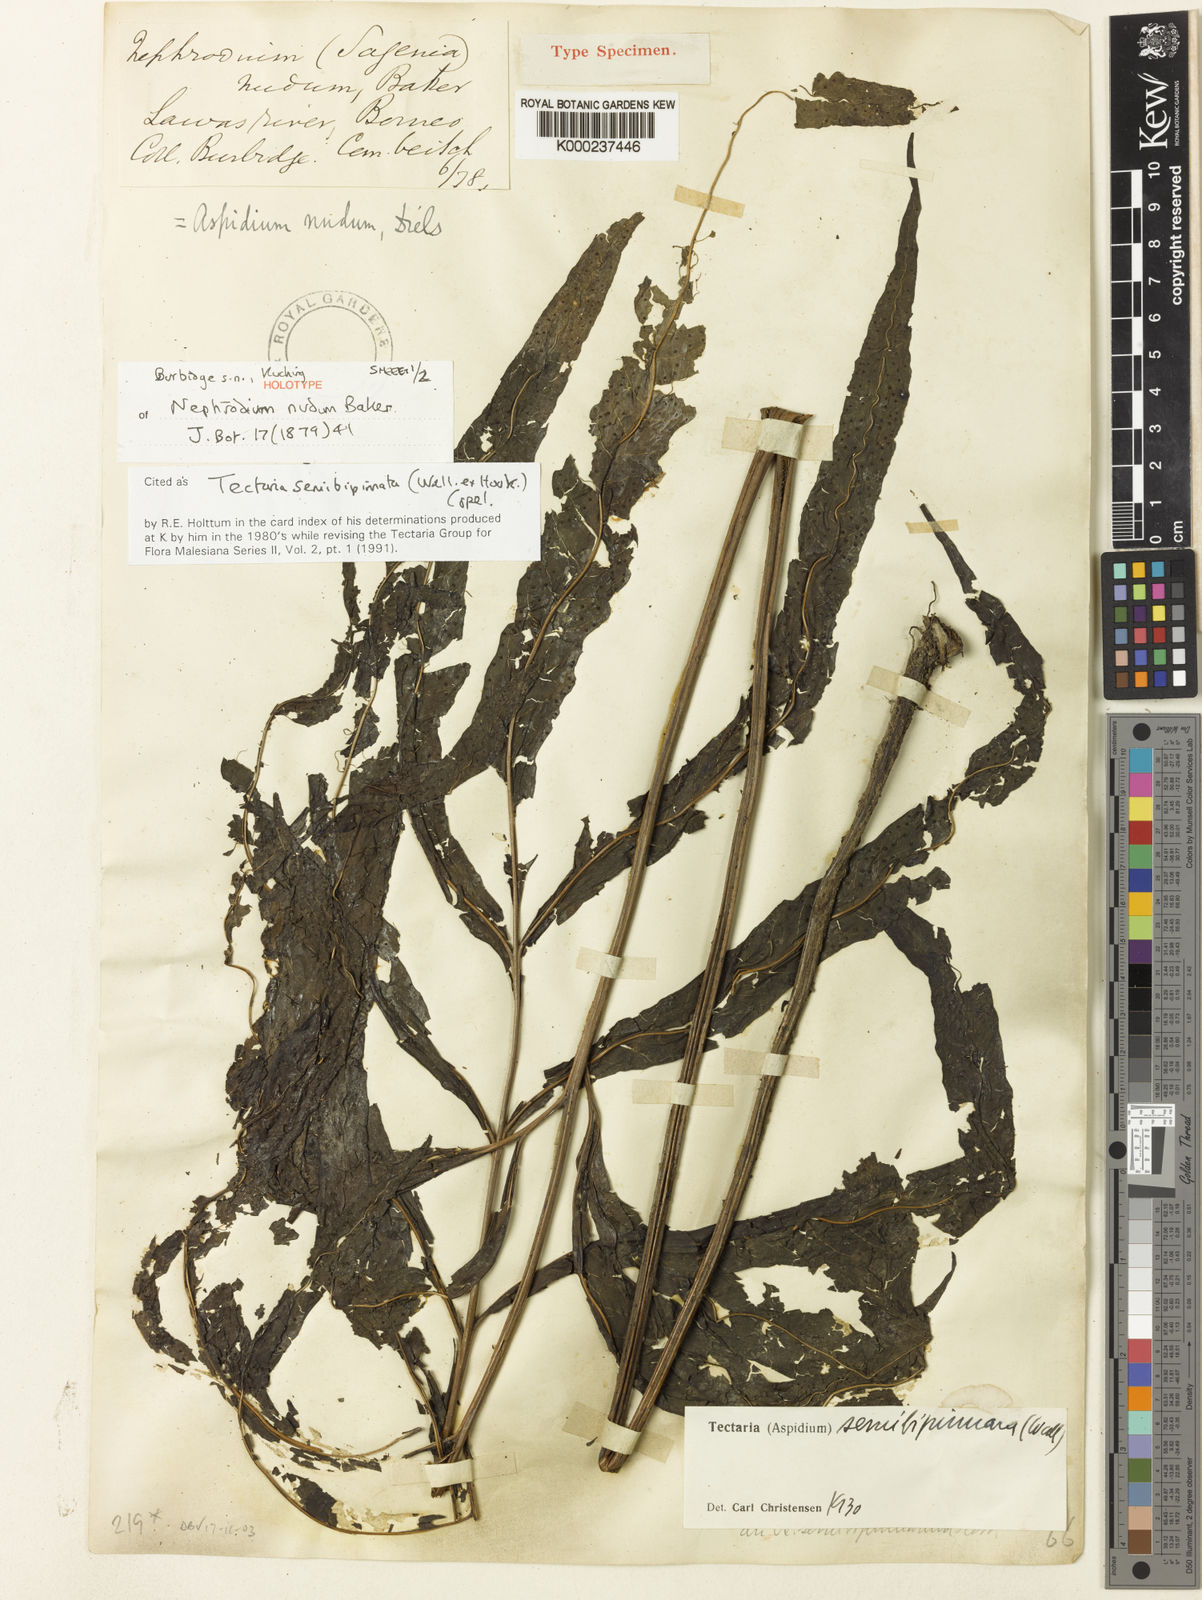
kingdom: Plantae
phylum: Tracheophyta
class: Polypodiopsida
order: Polypodiales
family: Tectariaceae
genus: Tectaria
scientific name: Tectaria semibipinnata
